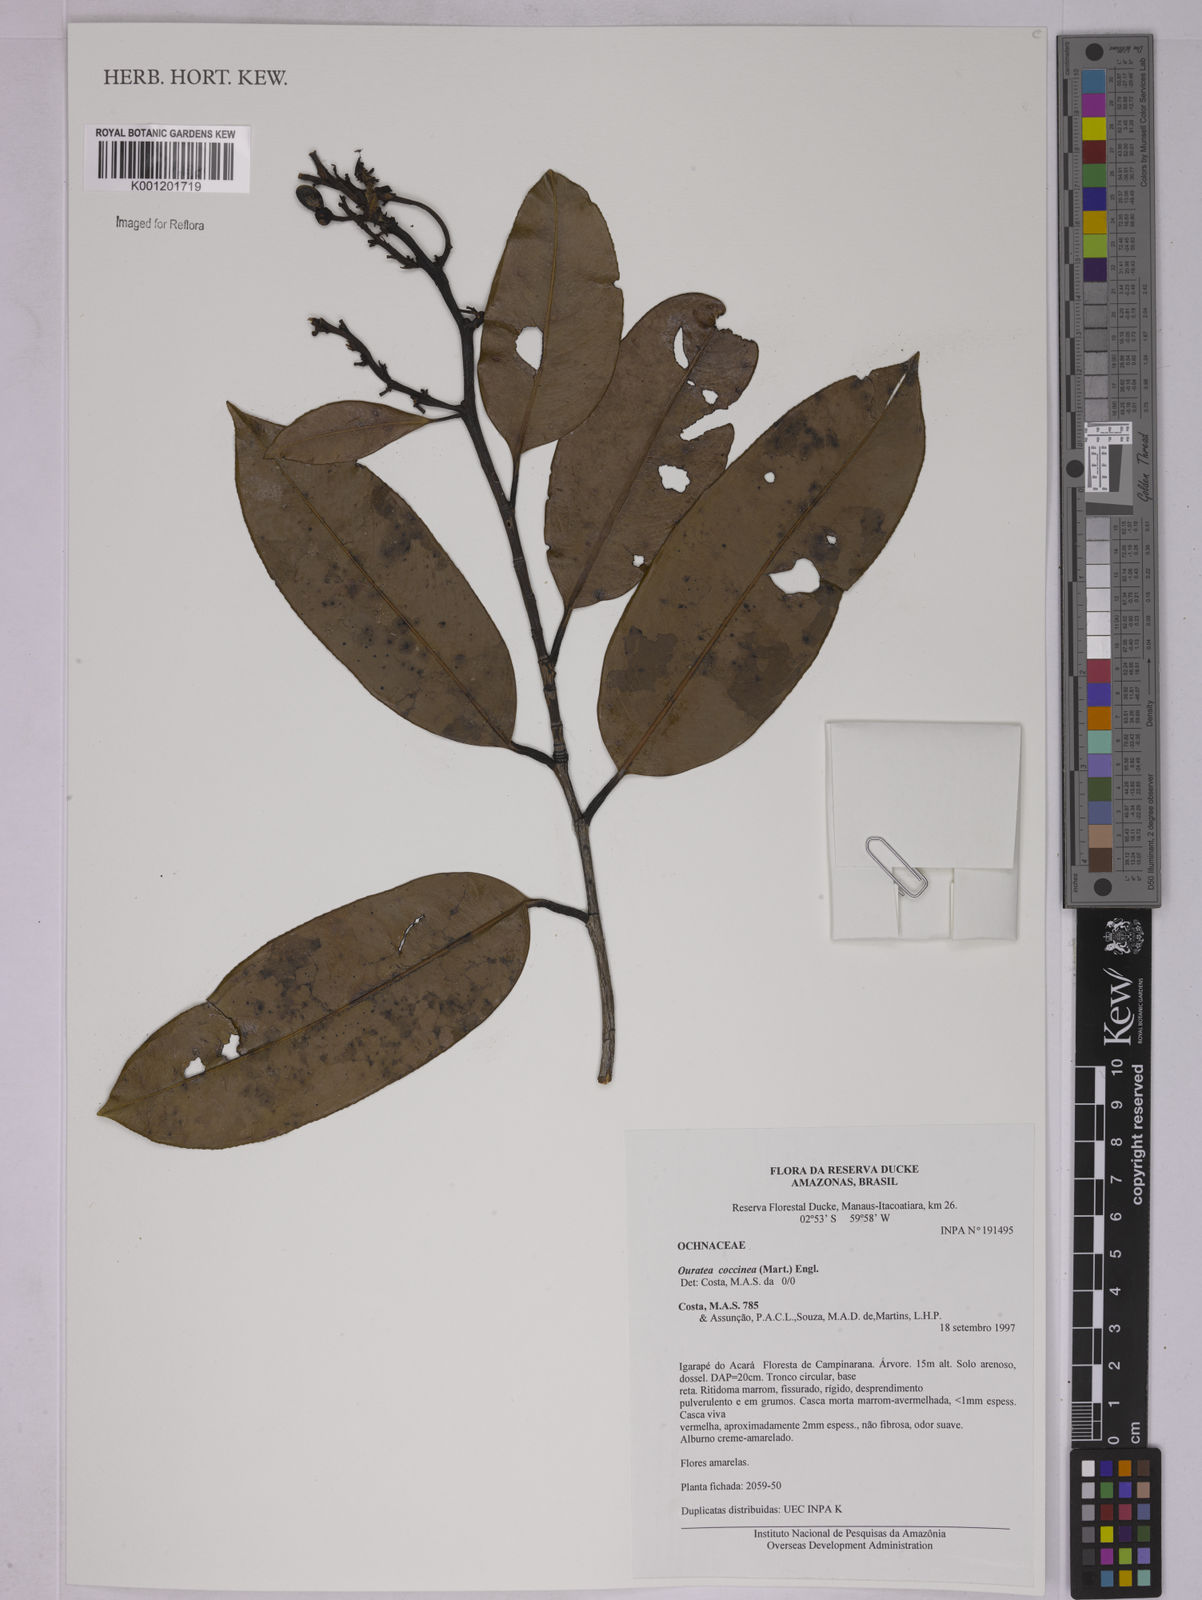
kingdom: Plantae
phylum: Tracheophyta
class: Magnoliopsida
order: Malpighiales
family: Ochnaceae
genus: Ouratea
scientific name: Ouratea coccinea
